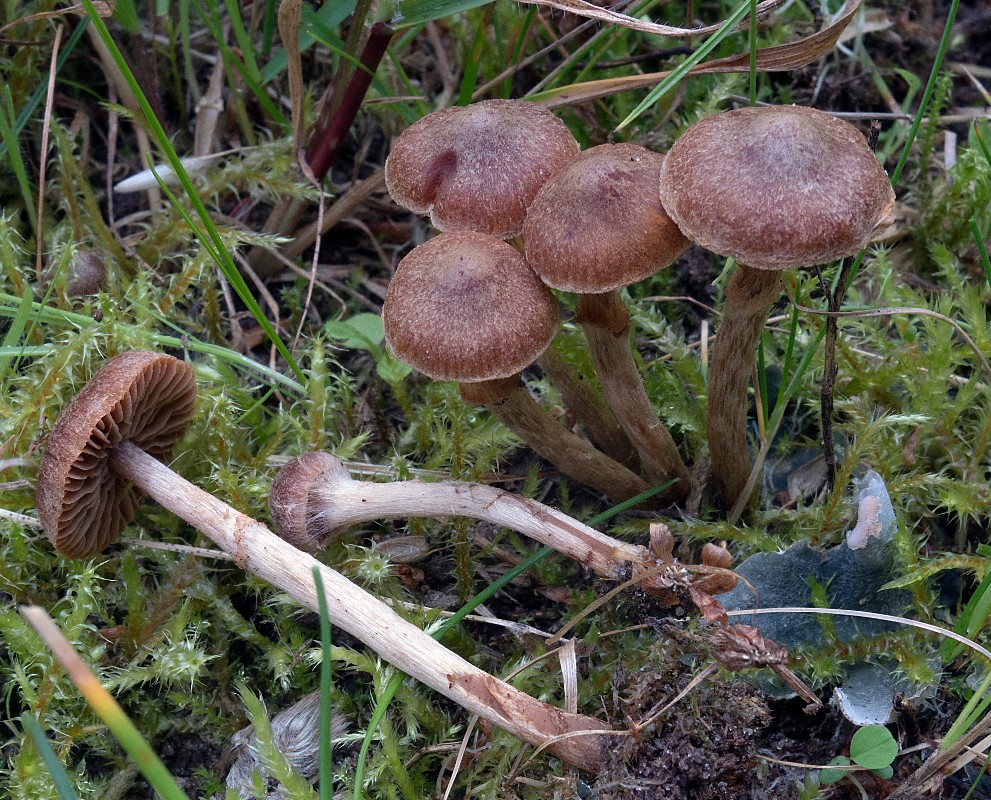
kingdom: Fungi
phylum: Basidiomycota
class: Agaricomycetes
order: Agaricales
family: Cortinariaceae
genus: Cortinarius
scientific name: Cortinarius fusisporus
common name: brunfnugget slørhat
